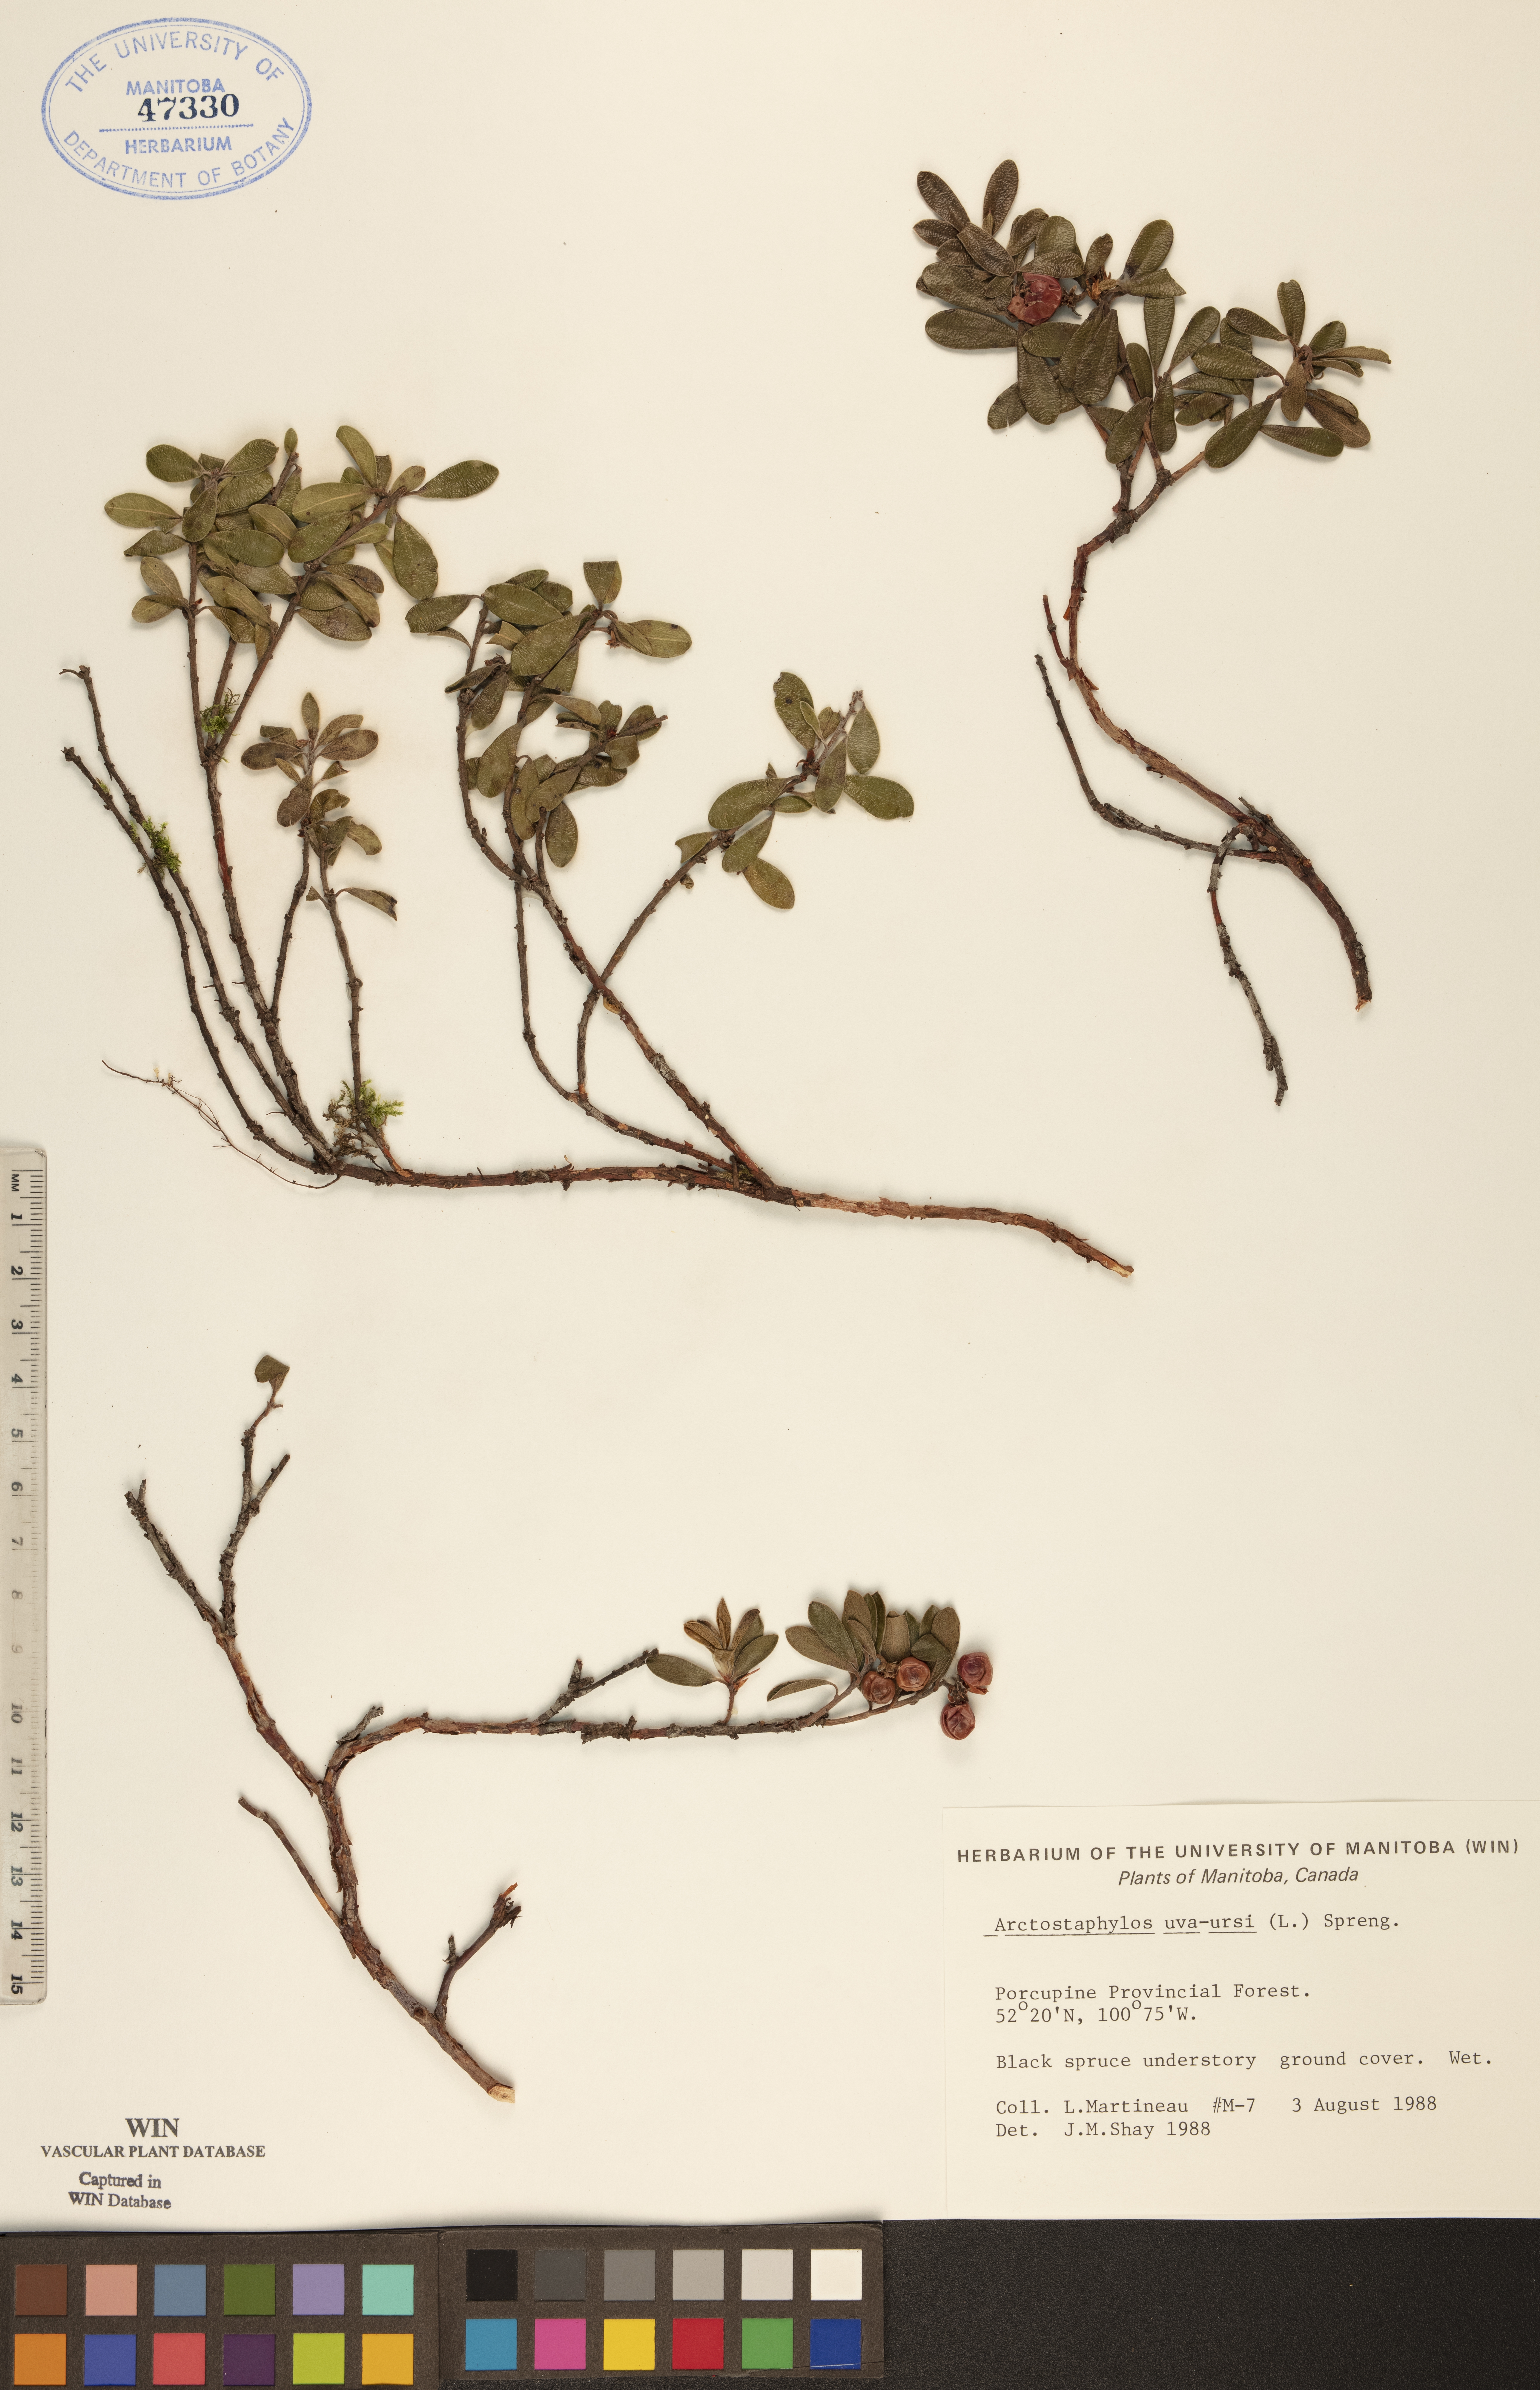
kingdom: Plantae
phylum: Tracheophyta
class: Magnoliopsida
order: Ericales
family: Ericaceae
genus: Arctostaphylos
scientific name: Arctostaphylos uva-ursi
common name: Bearberry
